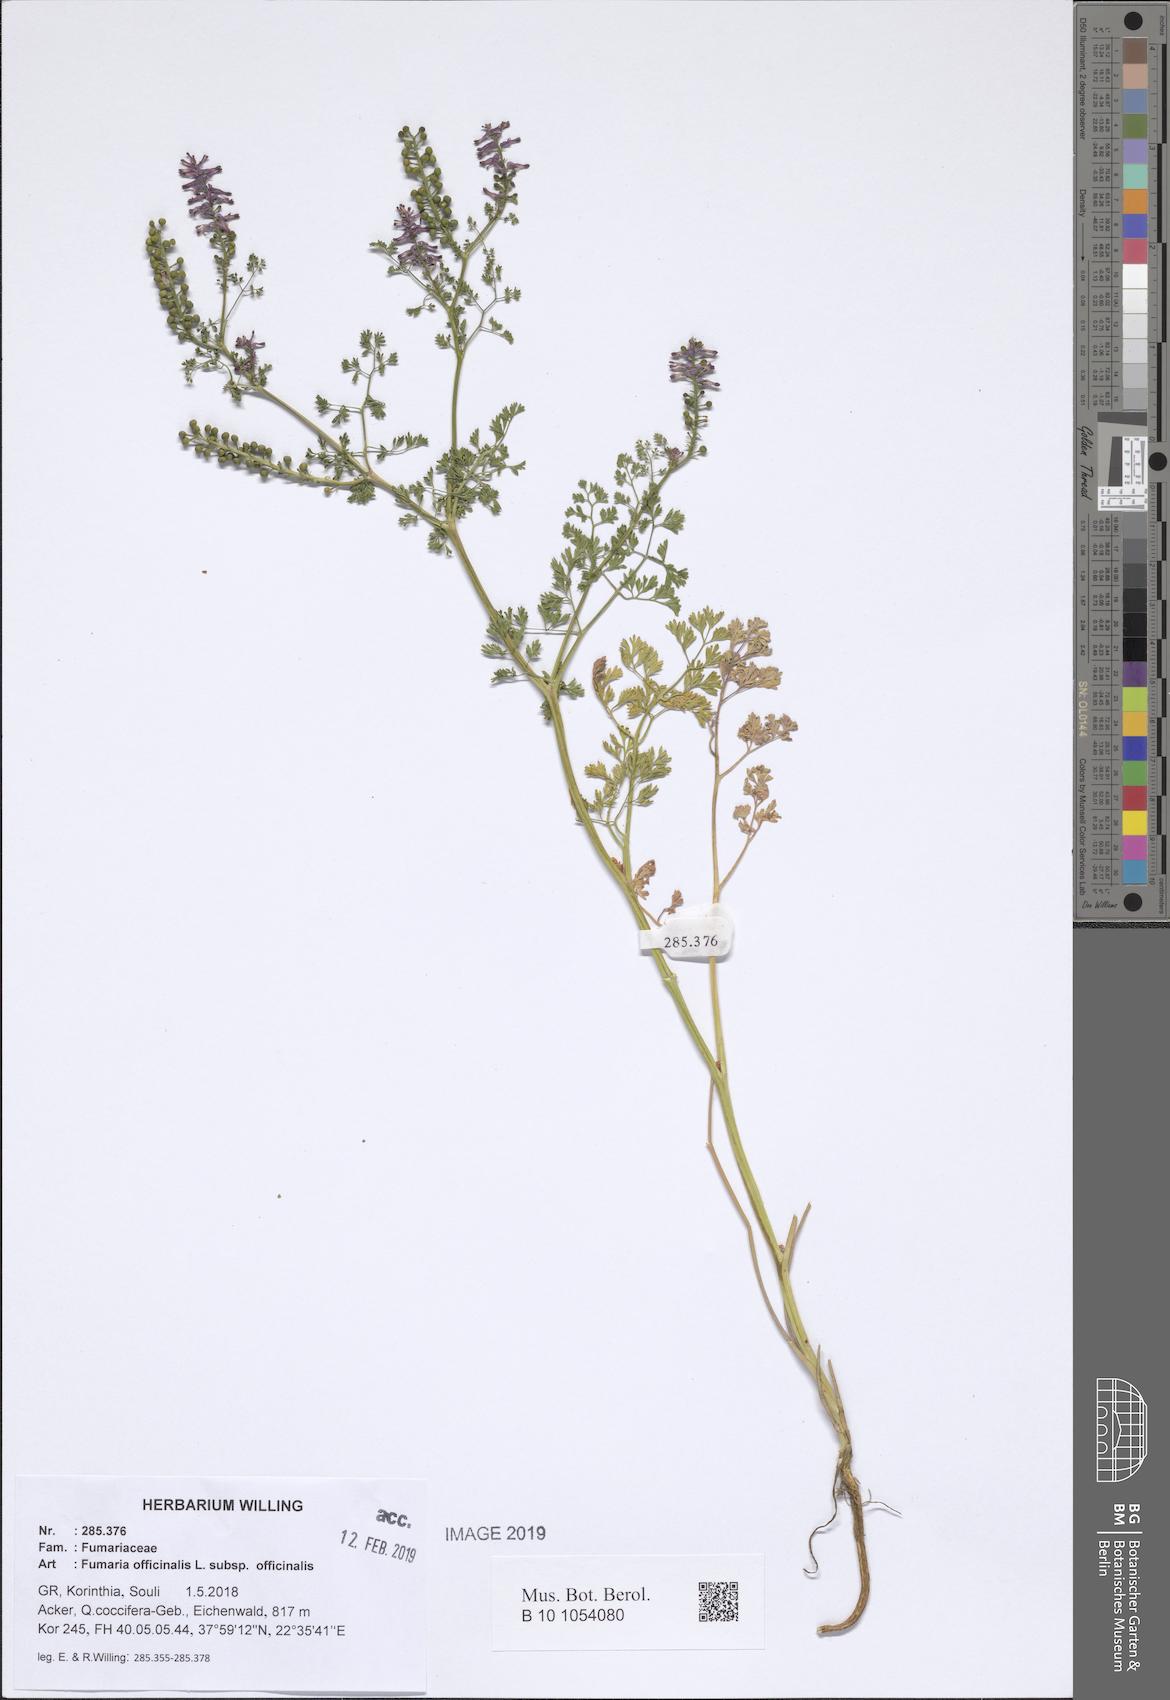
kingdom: Plantae
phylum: Tracheophyta
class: Magnoliopsida
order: Ranunculales
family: Papaveraceae
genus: Fumaria
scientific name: Fumaria officinalis
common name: Common fumitory
